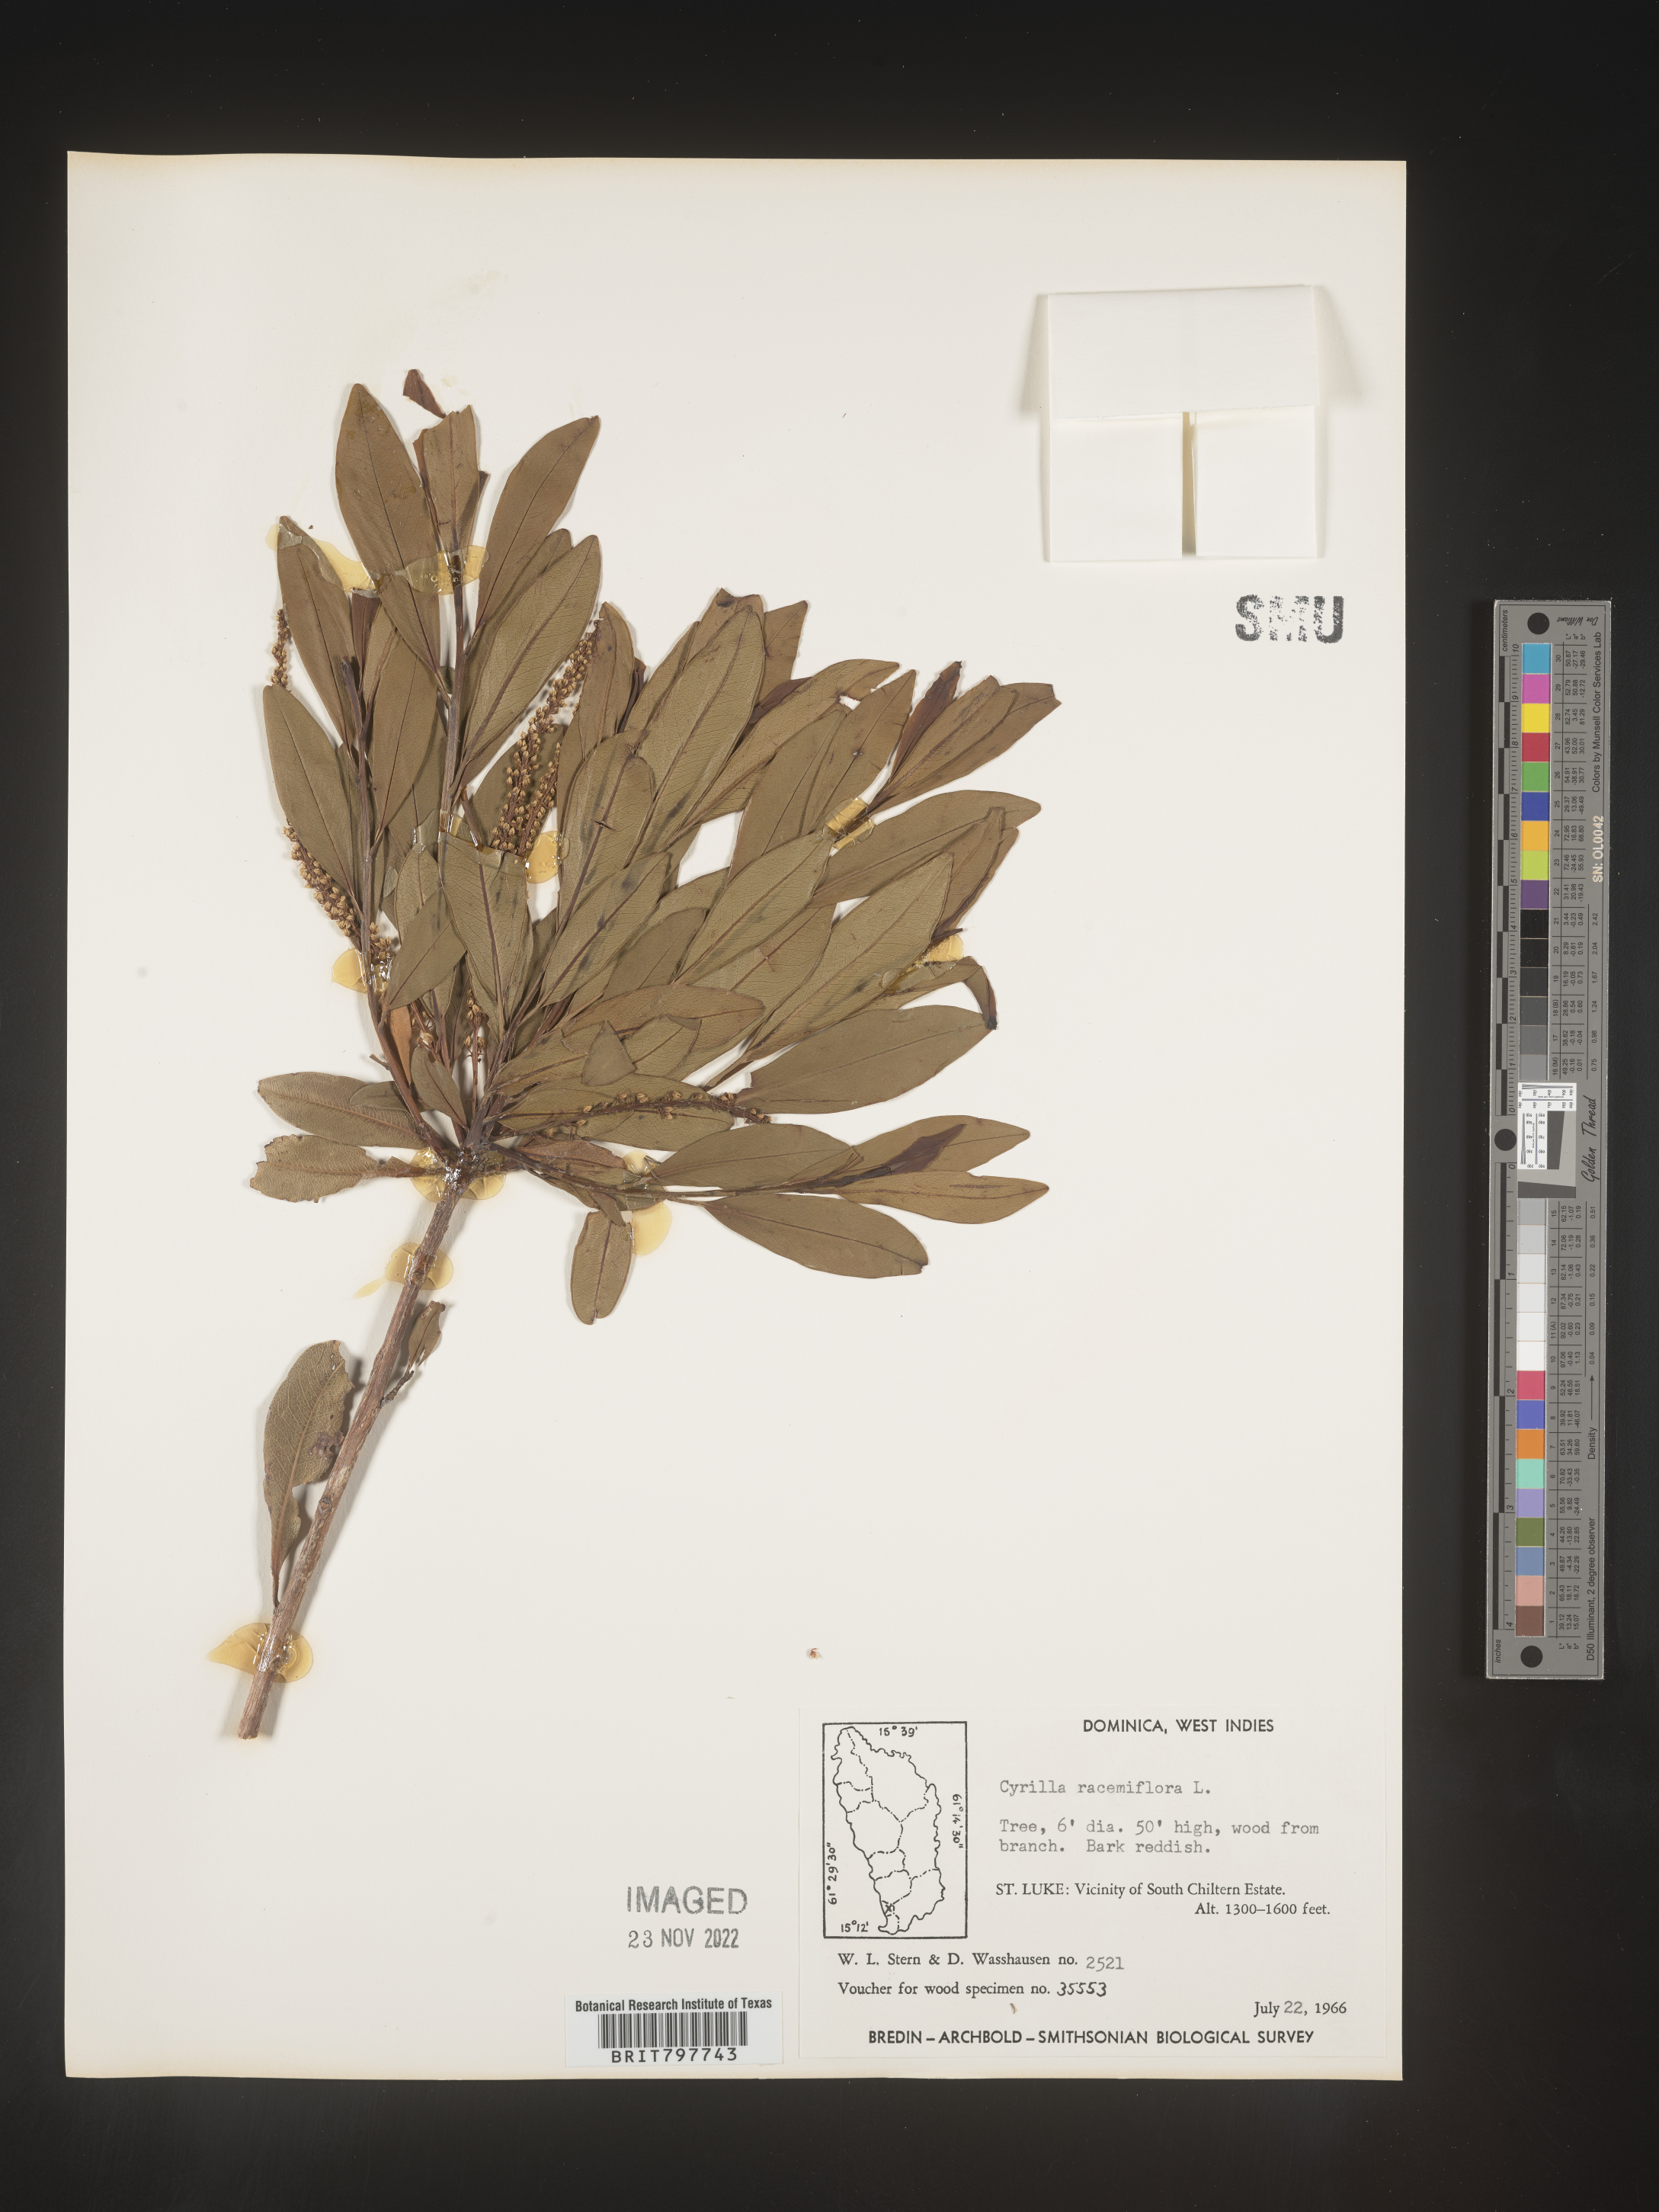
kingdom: Plantae
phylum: Tracheophyta
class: Magnoliopsida
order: Ericales
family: Cyrillaceae
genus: Cyrilla
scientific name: Cyrilla
